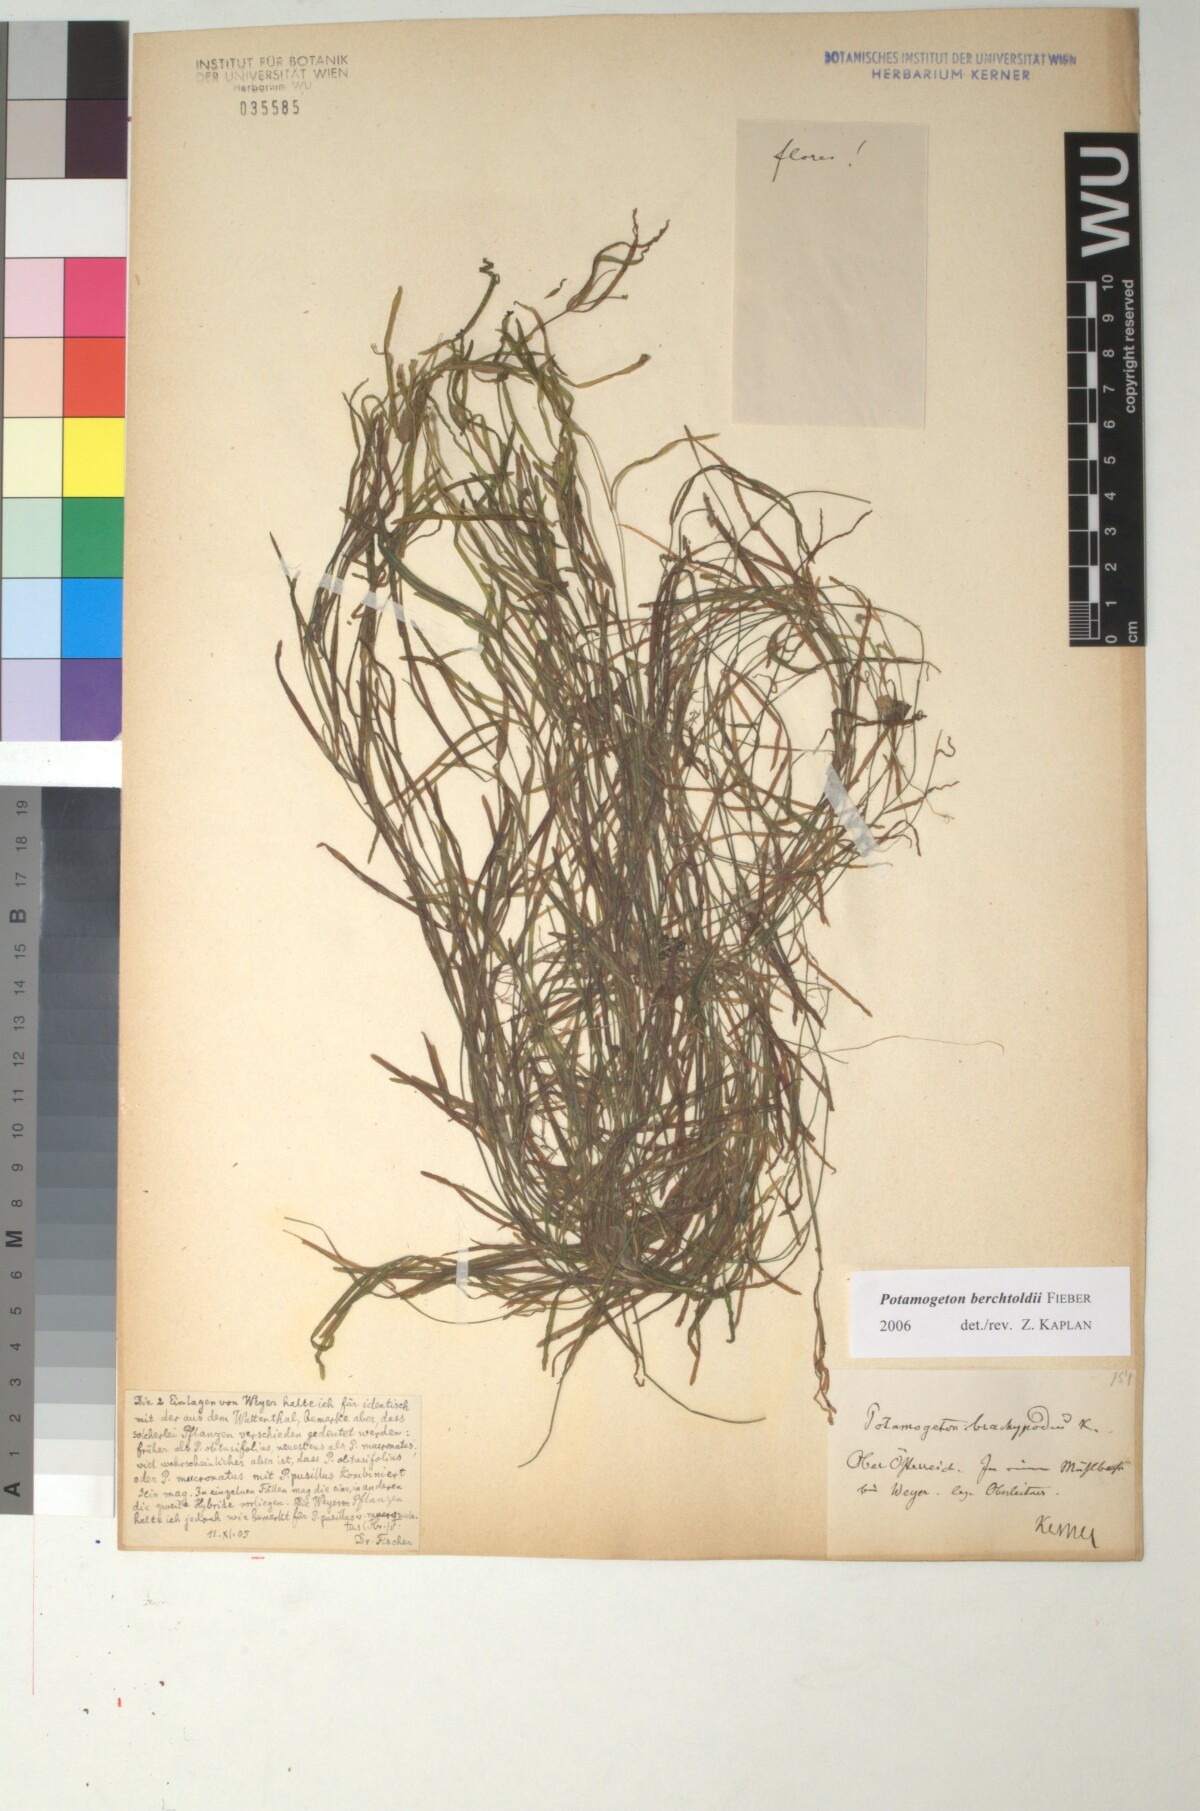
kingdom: Plantae
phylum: Tracheophyta
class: Liliopsida
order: Alismatales
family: Potamogetonaceae
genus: Potamogeton
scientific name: Potamogeton berchtoldii
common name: Small pondweed
